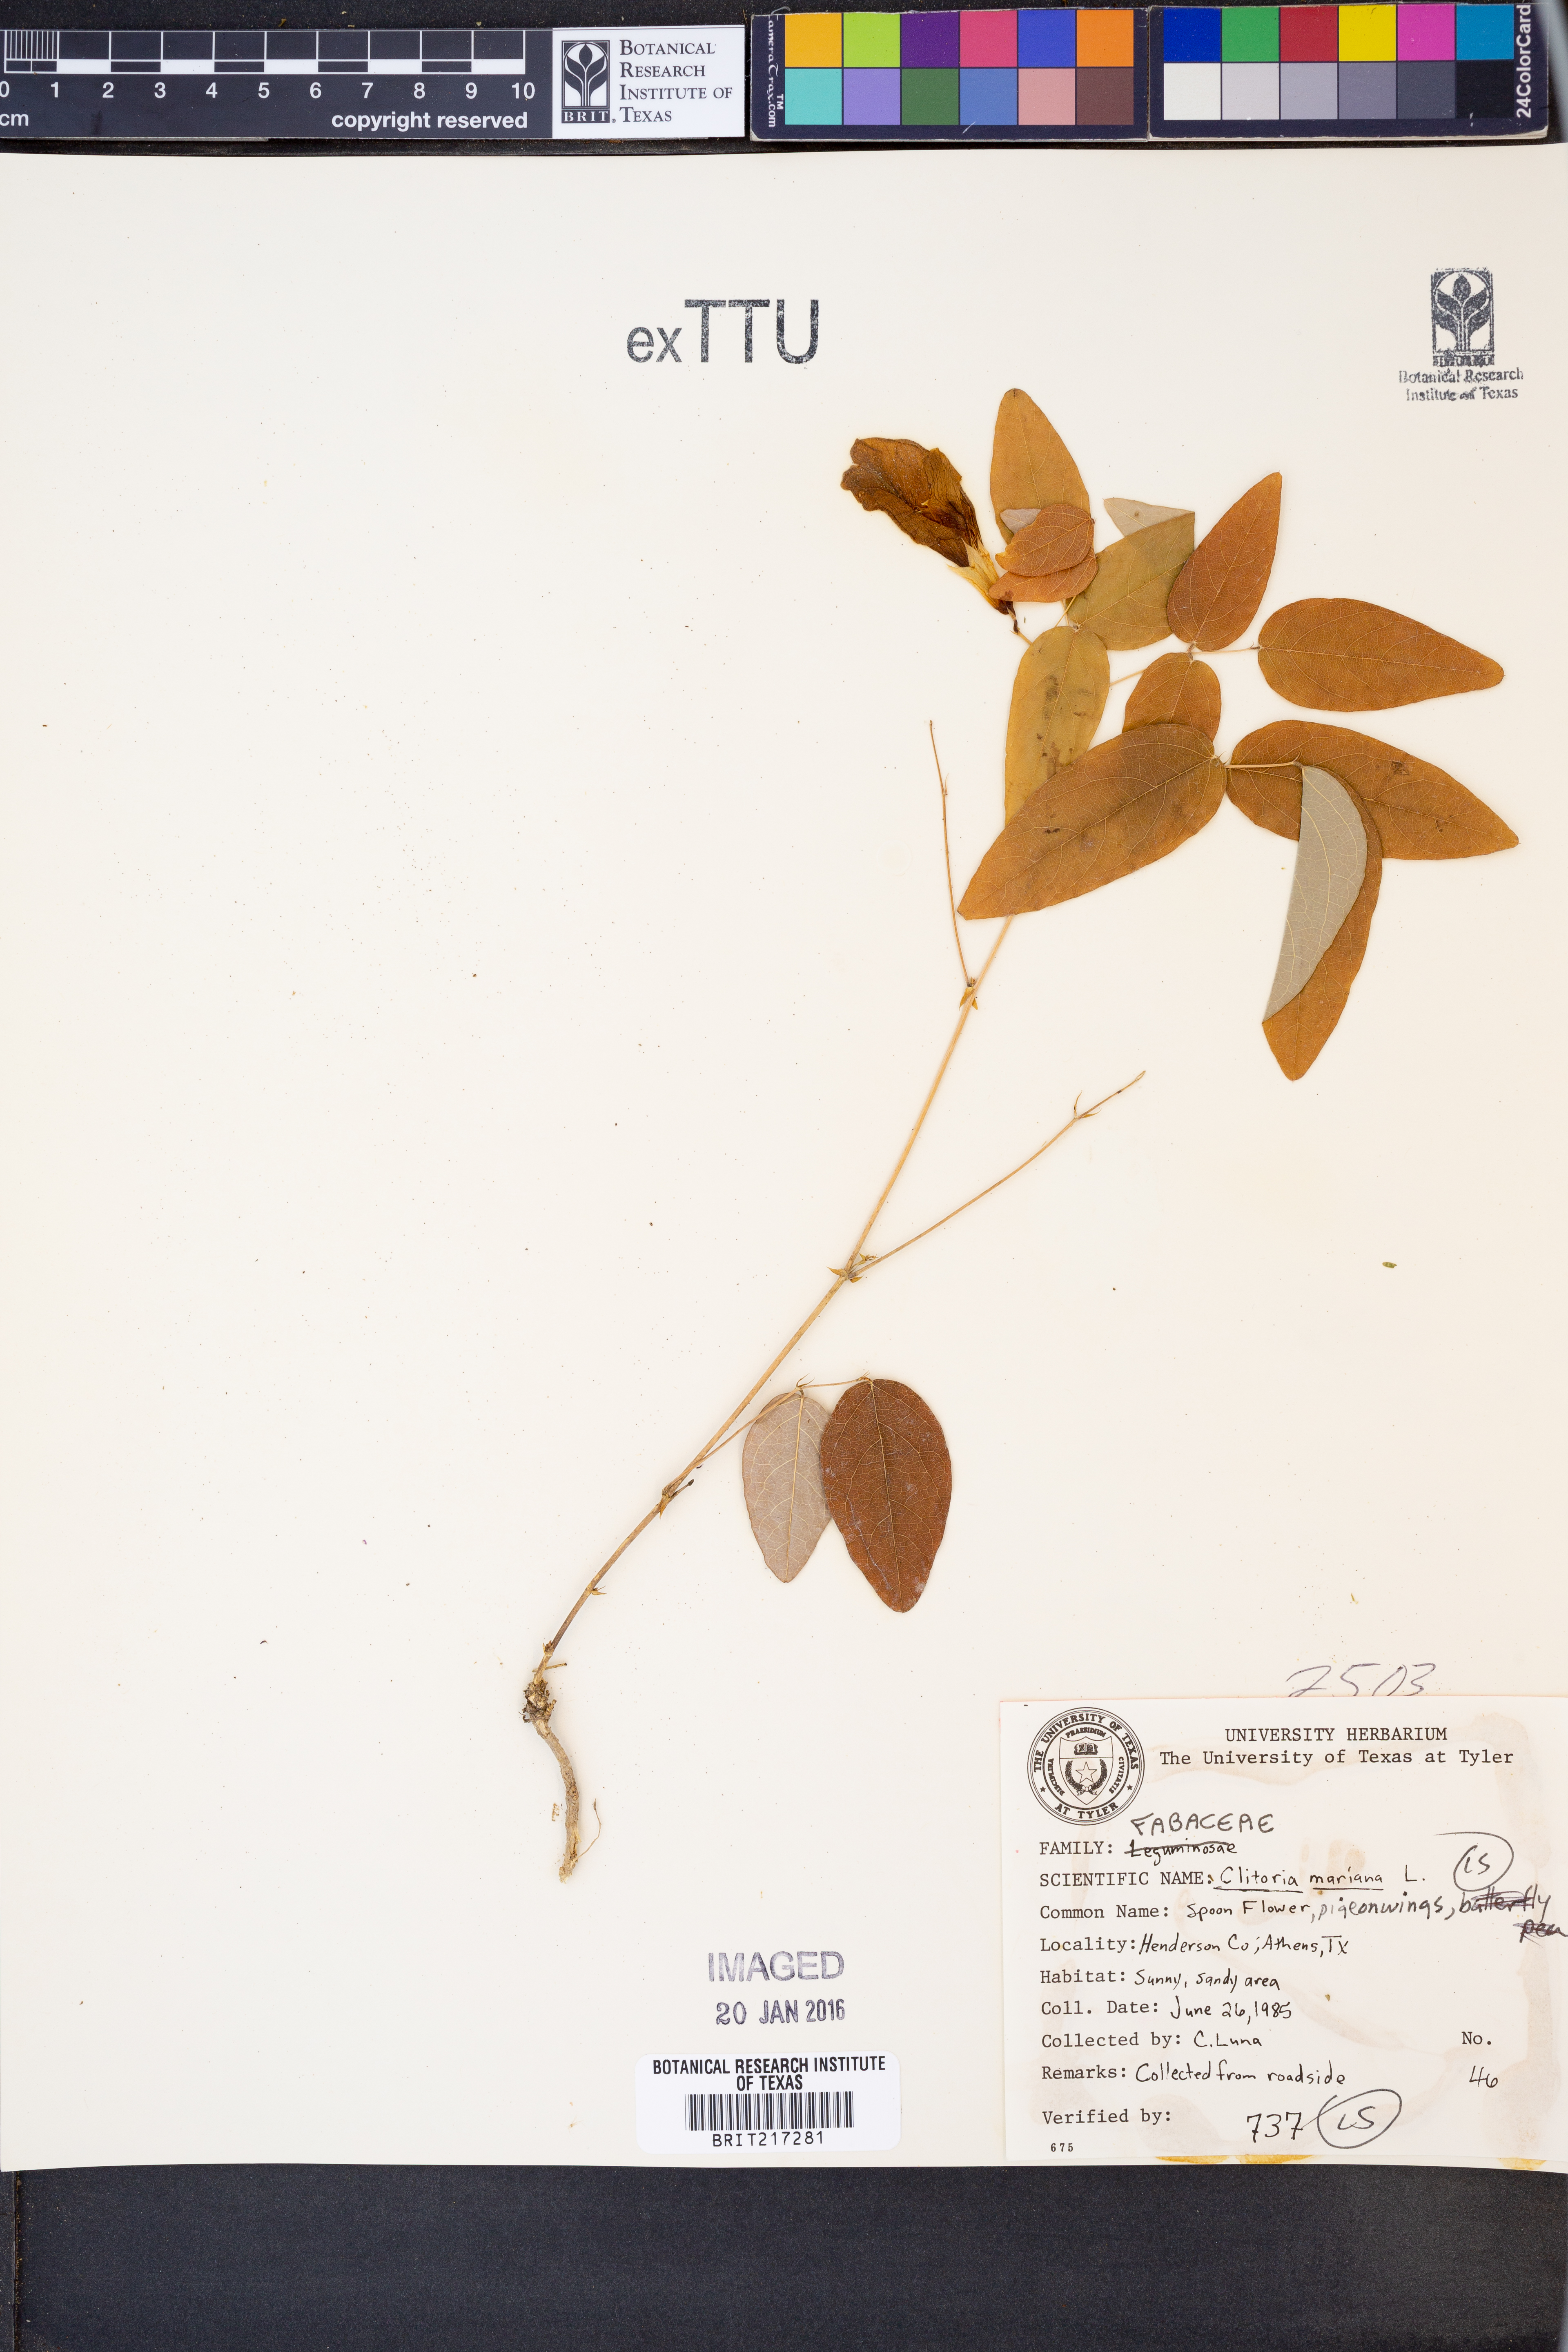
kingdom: Plantae
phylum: Tracheophyta
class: Magnoliopsida
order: Fabales
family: Fabaceae
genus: Clitoria
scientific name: Clitoria mariana
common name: Butterfly-pea
